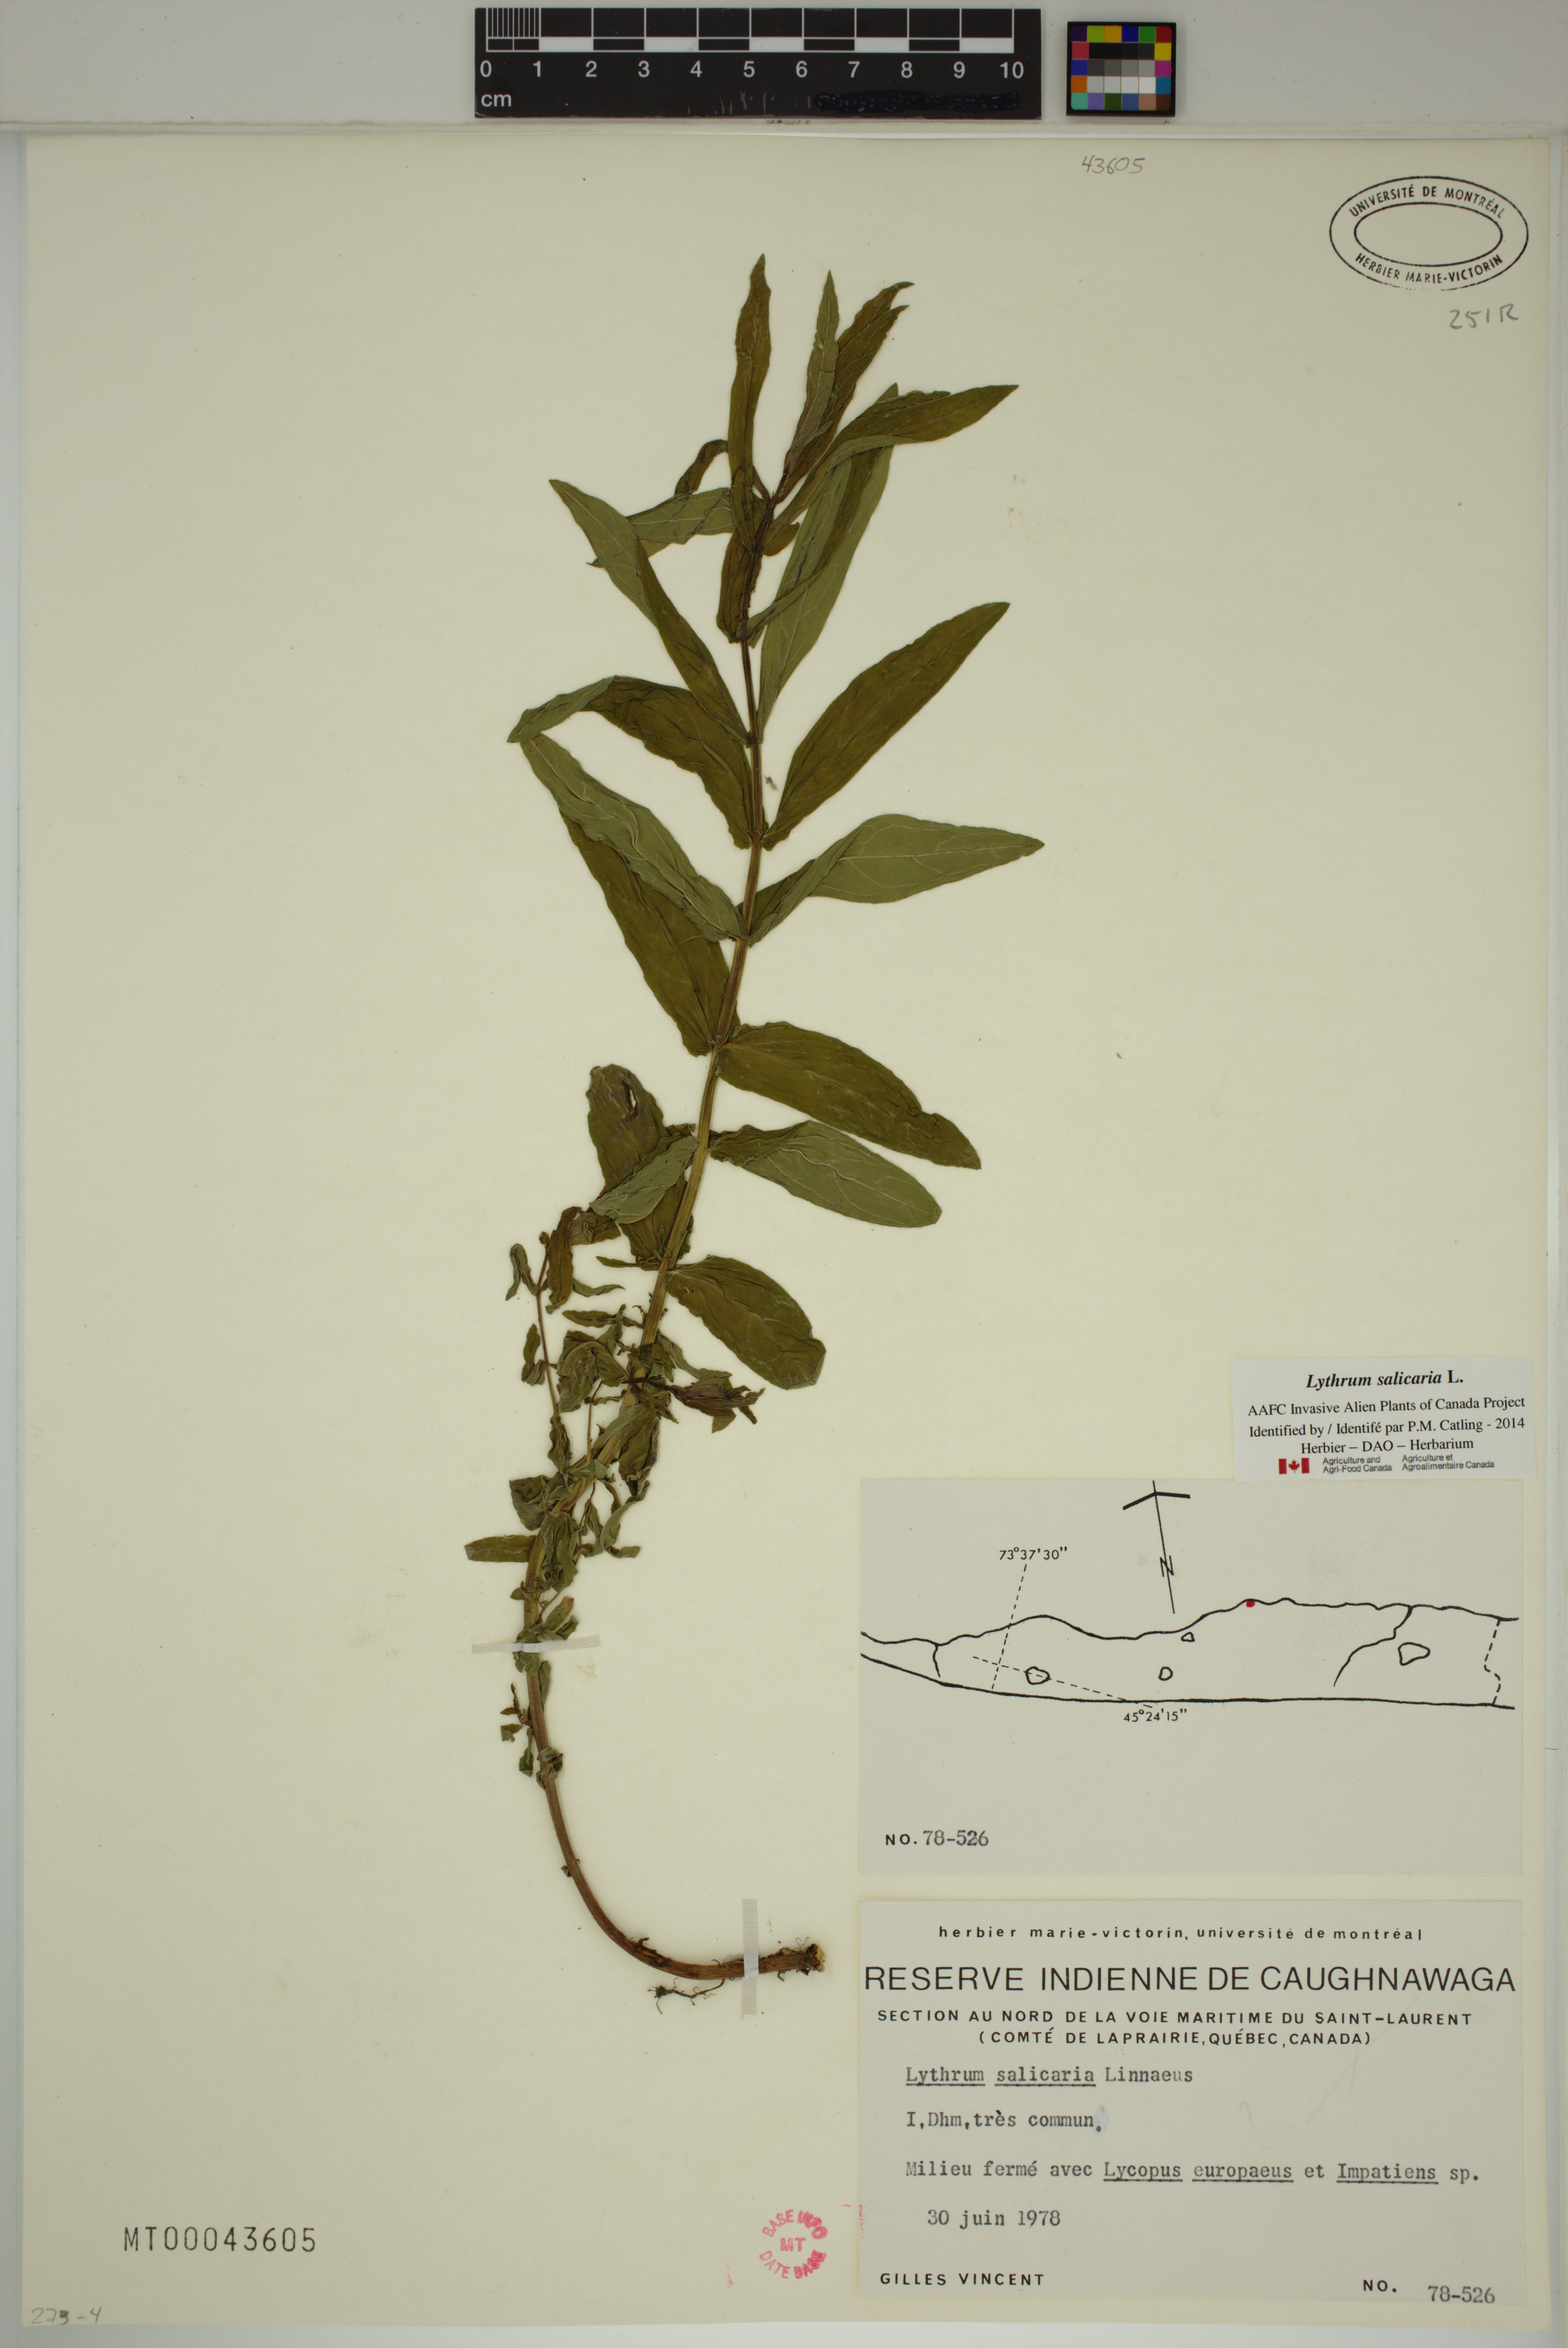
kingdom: Plantae
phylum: Tracheophyta
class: Magnoliopsida
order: Myrtales
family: Lythraceae
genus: Lythrum
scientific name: Lythrum salicaria
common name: Purple loosestrife
